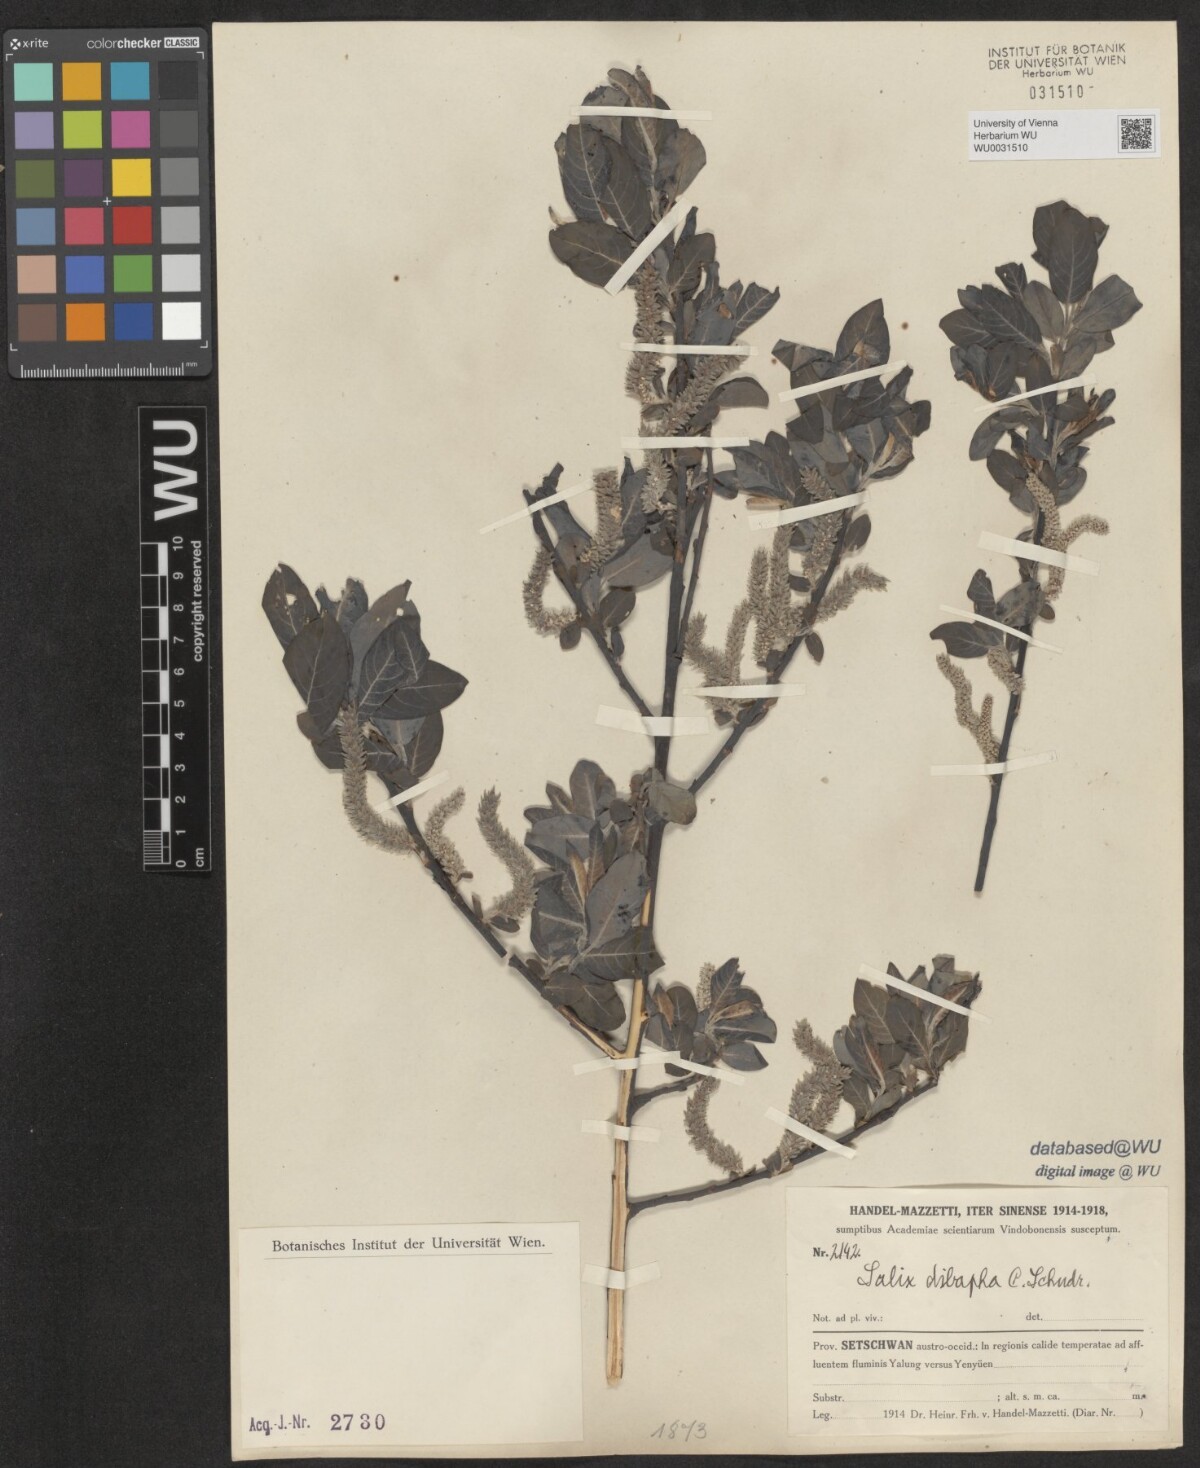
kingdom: Plantae
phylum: Tracheophyta
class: Magnoliopsida
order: Malpighiales
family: Salicaceae
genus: Salix
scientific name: Salix dibapha
